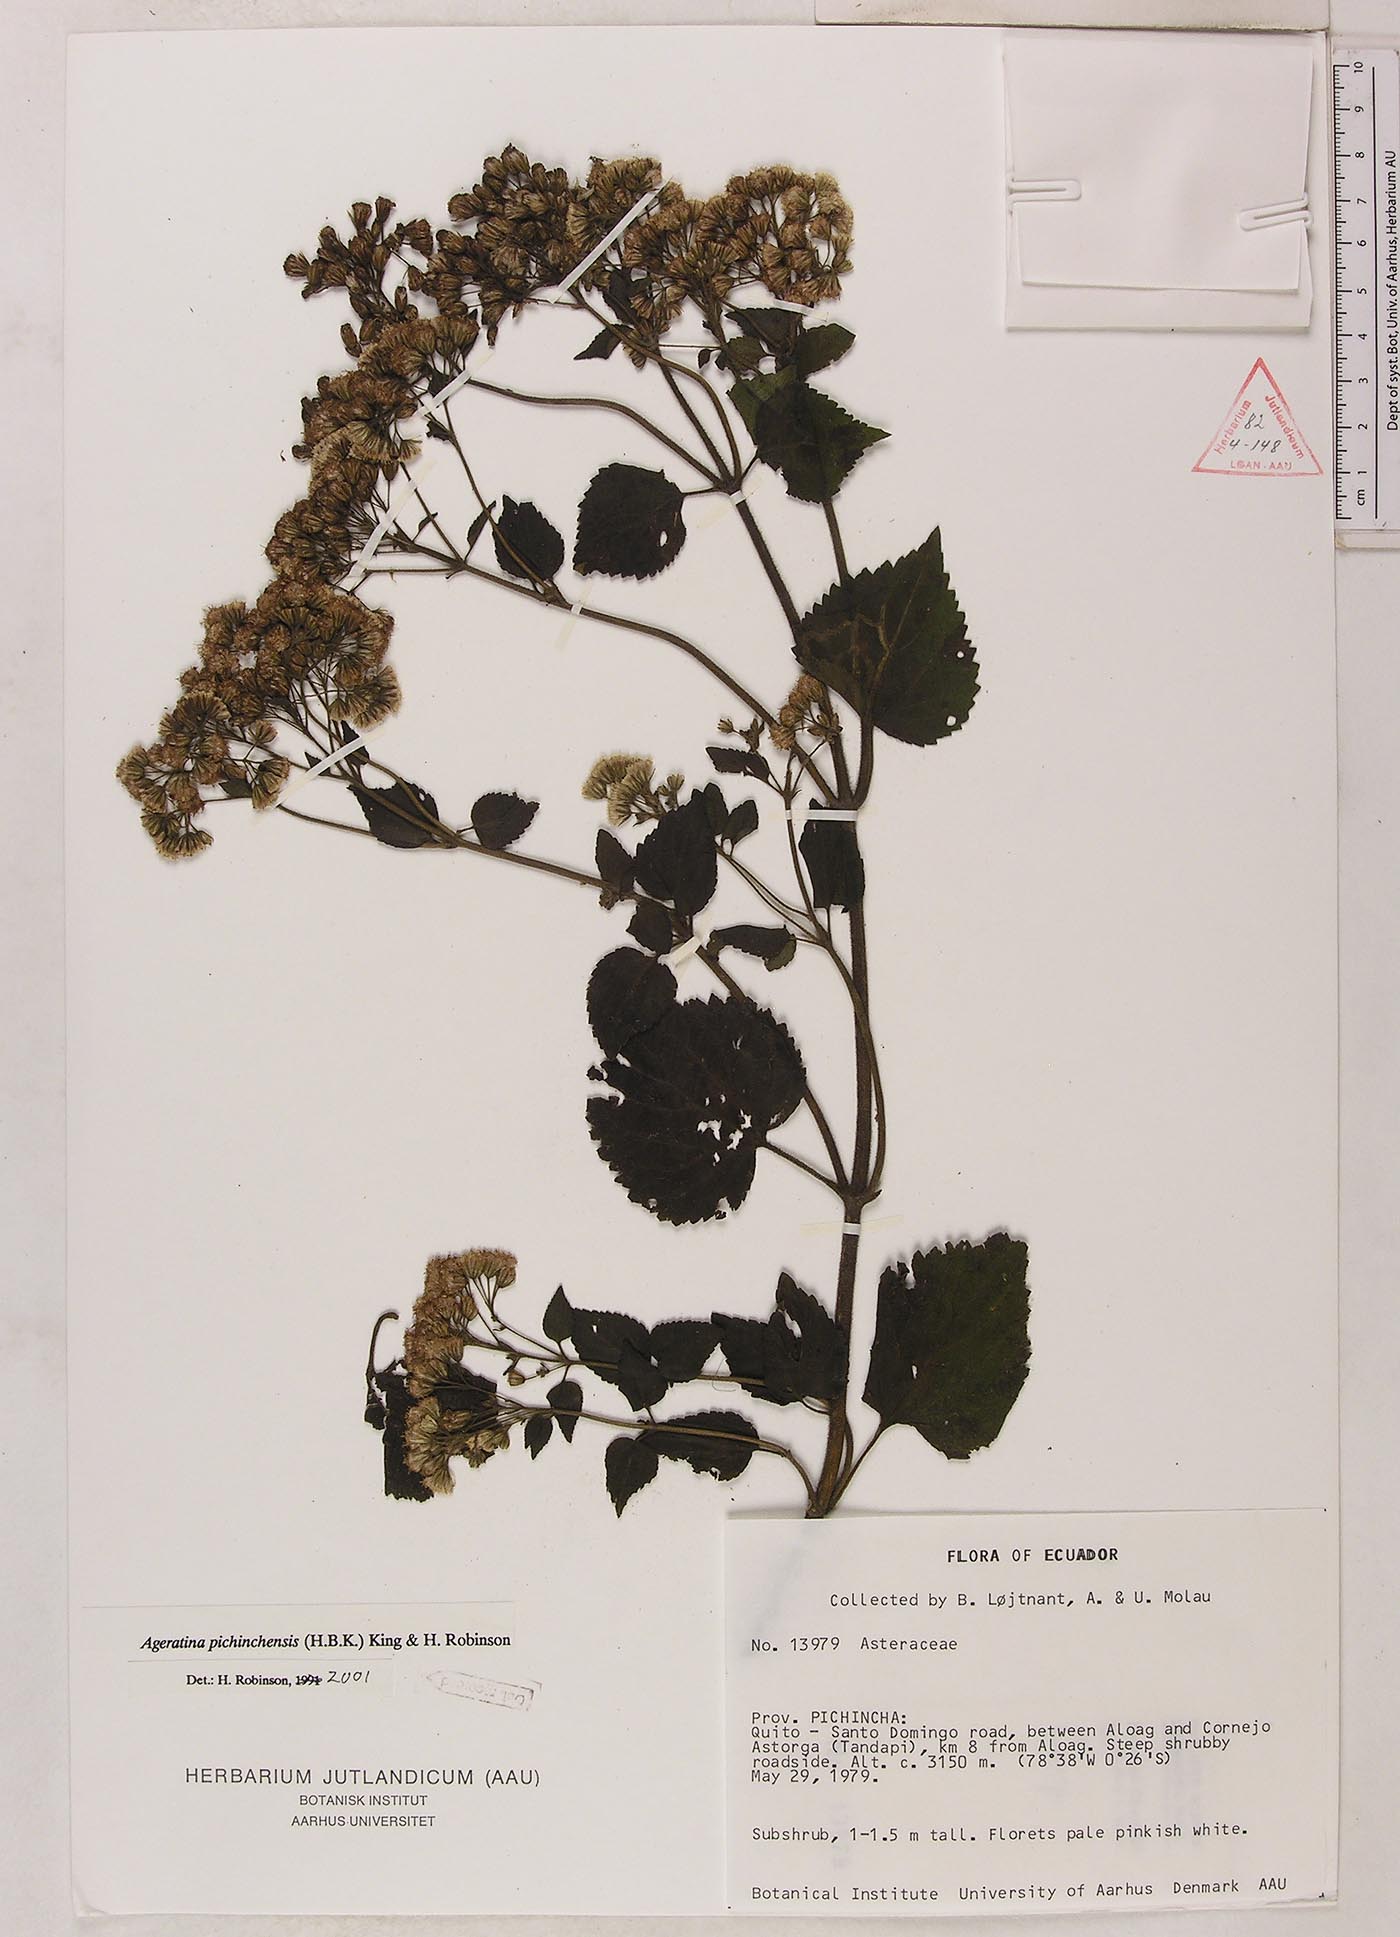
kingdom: Plantae
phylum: Tracheophyta
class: Magnoliopsida
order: Asterales
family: Asteraceae
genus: Ageratina
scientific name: Ageratina pichinchensis
